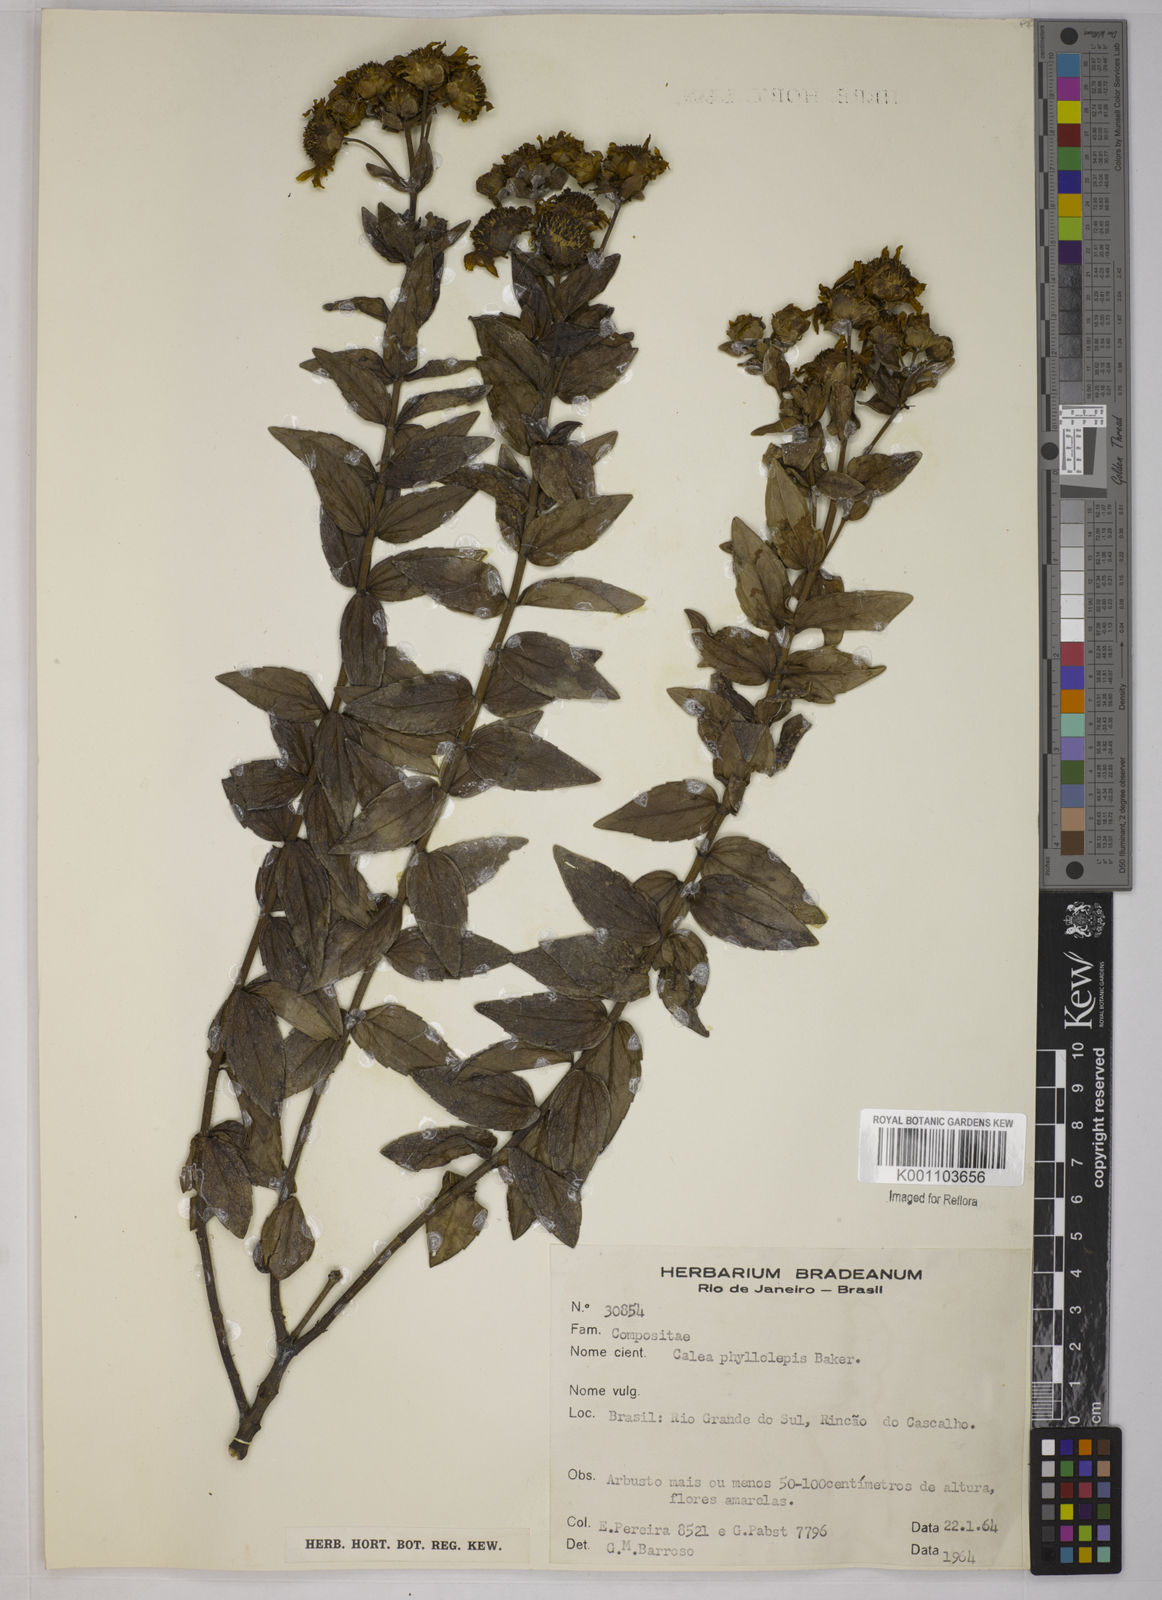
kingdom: Plantae
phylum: Tracheophyta
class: Magnoliopsida
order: Asterales
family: Asteraceae
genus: Calea
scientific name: Calea phyllolepis
